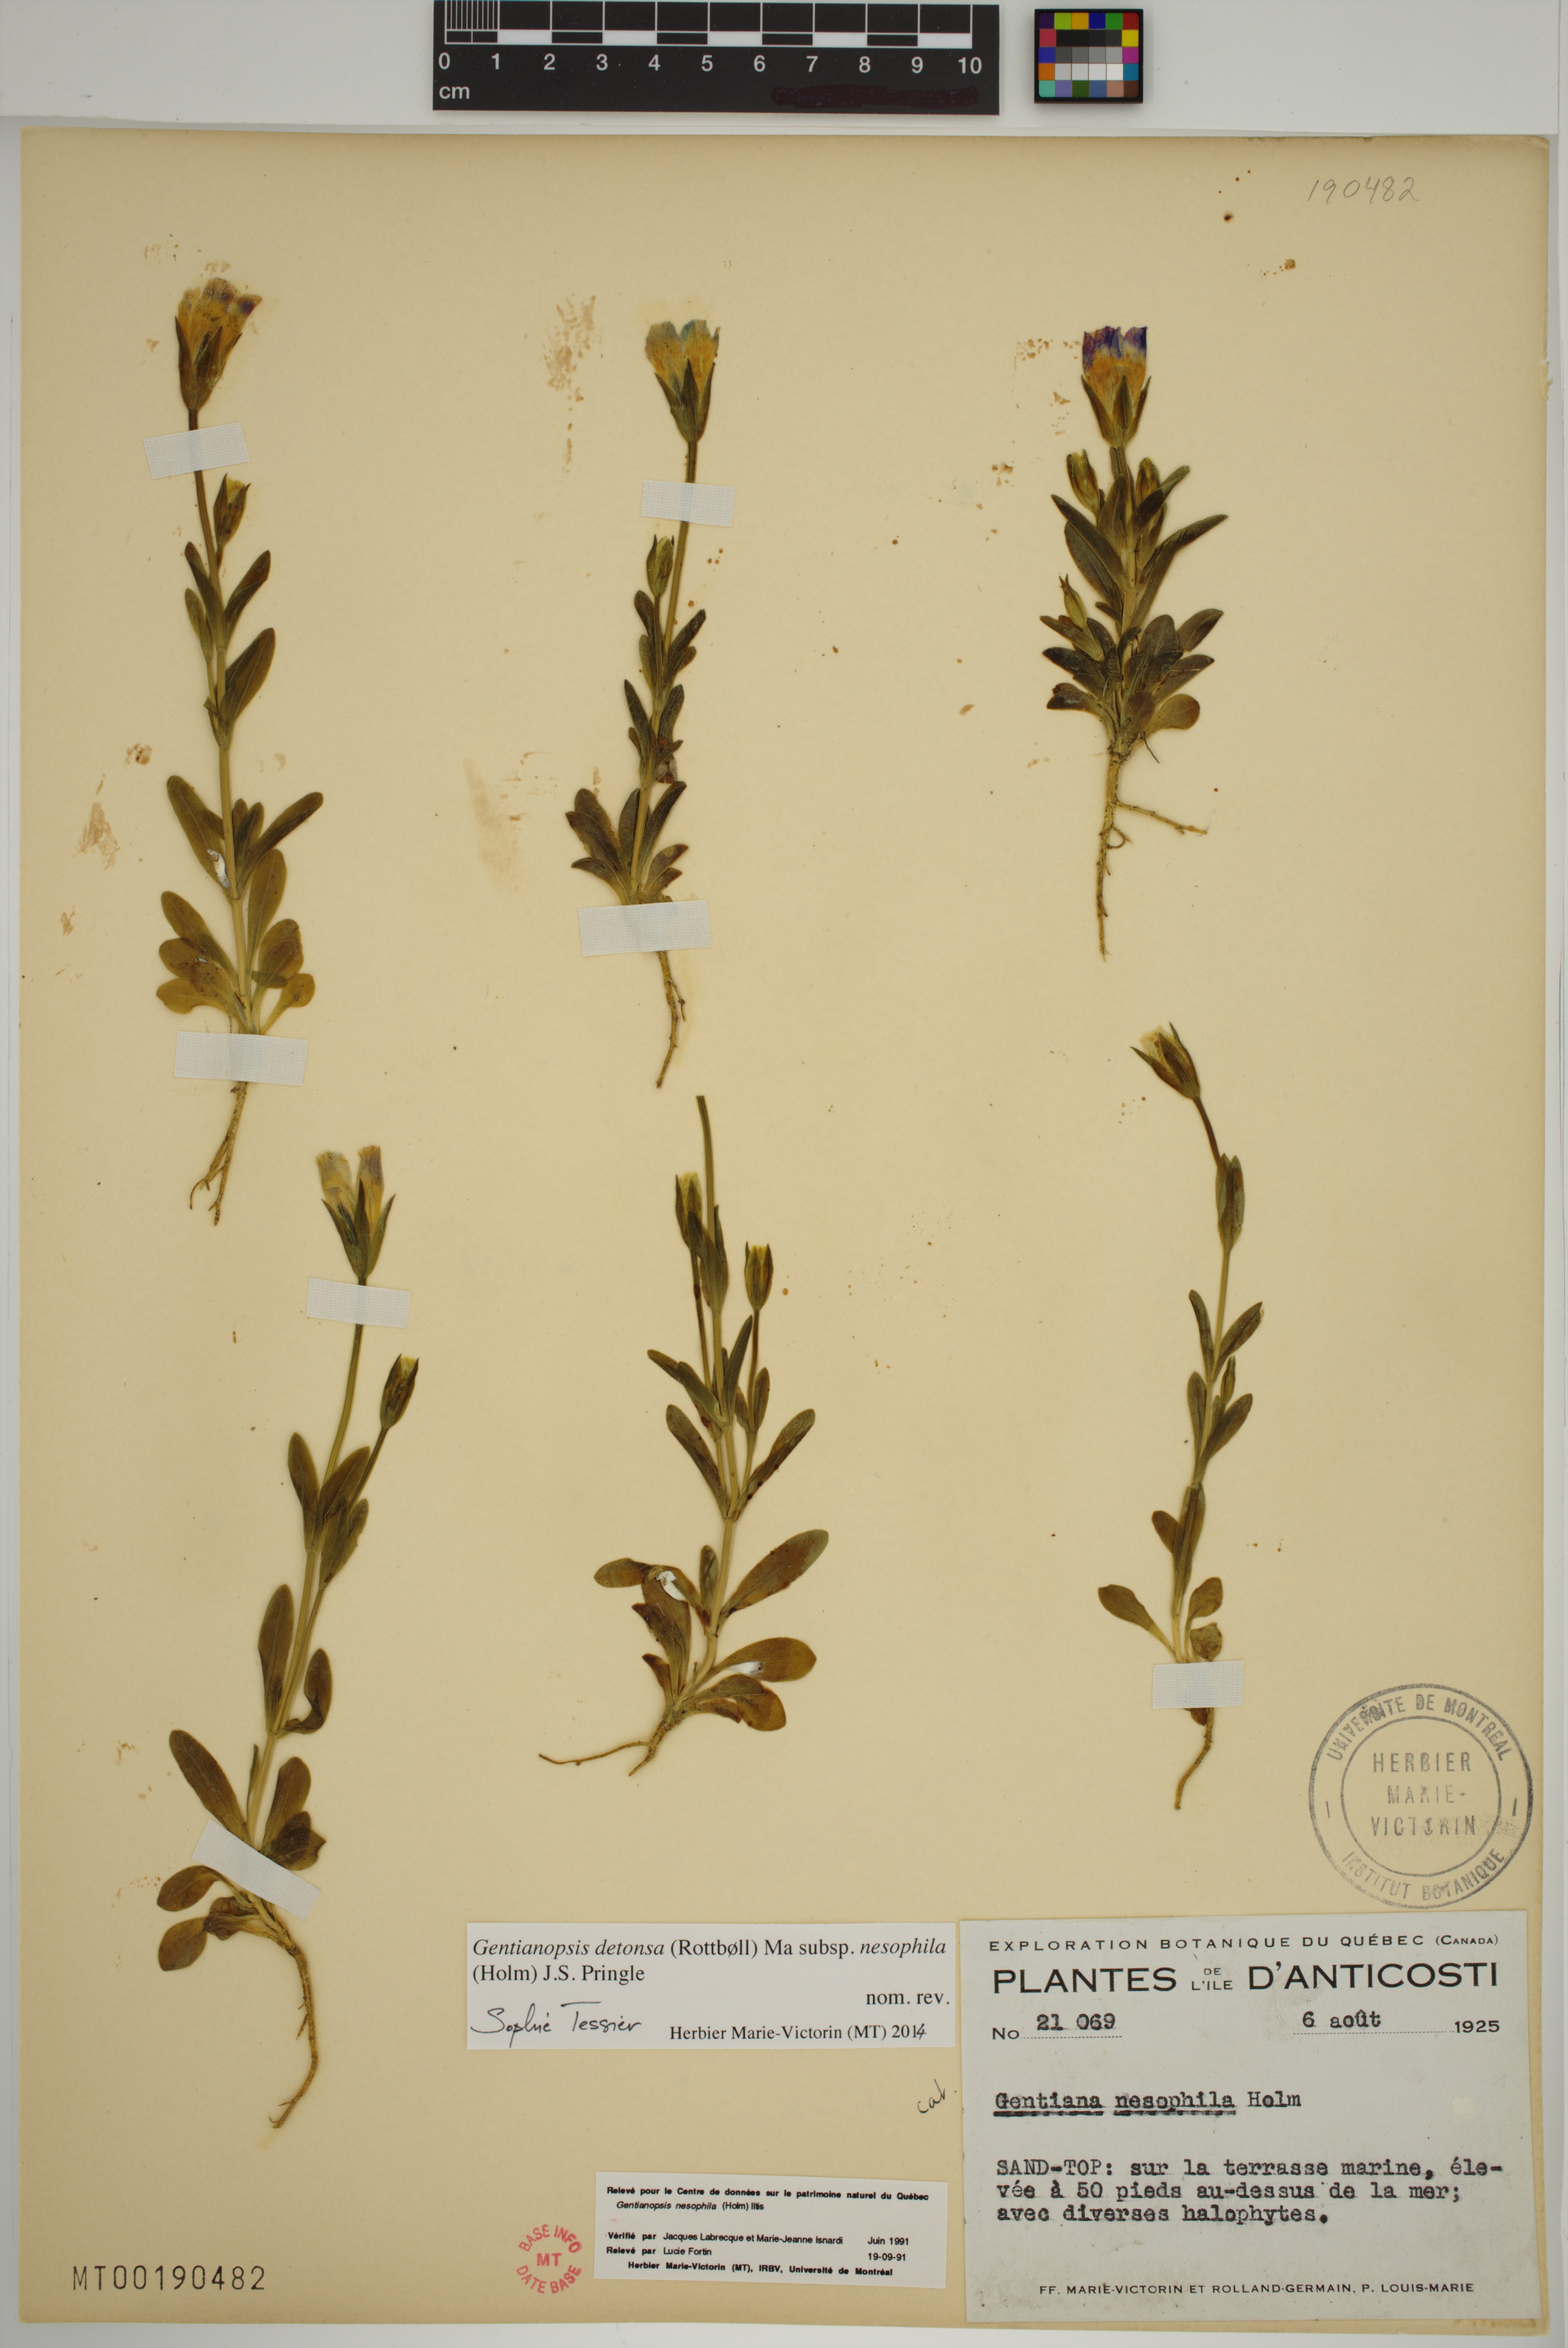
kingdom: Plantae
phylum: Tracheophyta
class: Magnoliopsida
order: Gentianales
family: Gentianaceae
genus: Gentianopsis
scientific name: Gentianopsis nesophila
